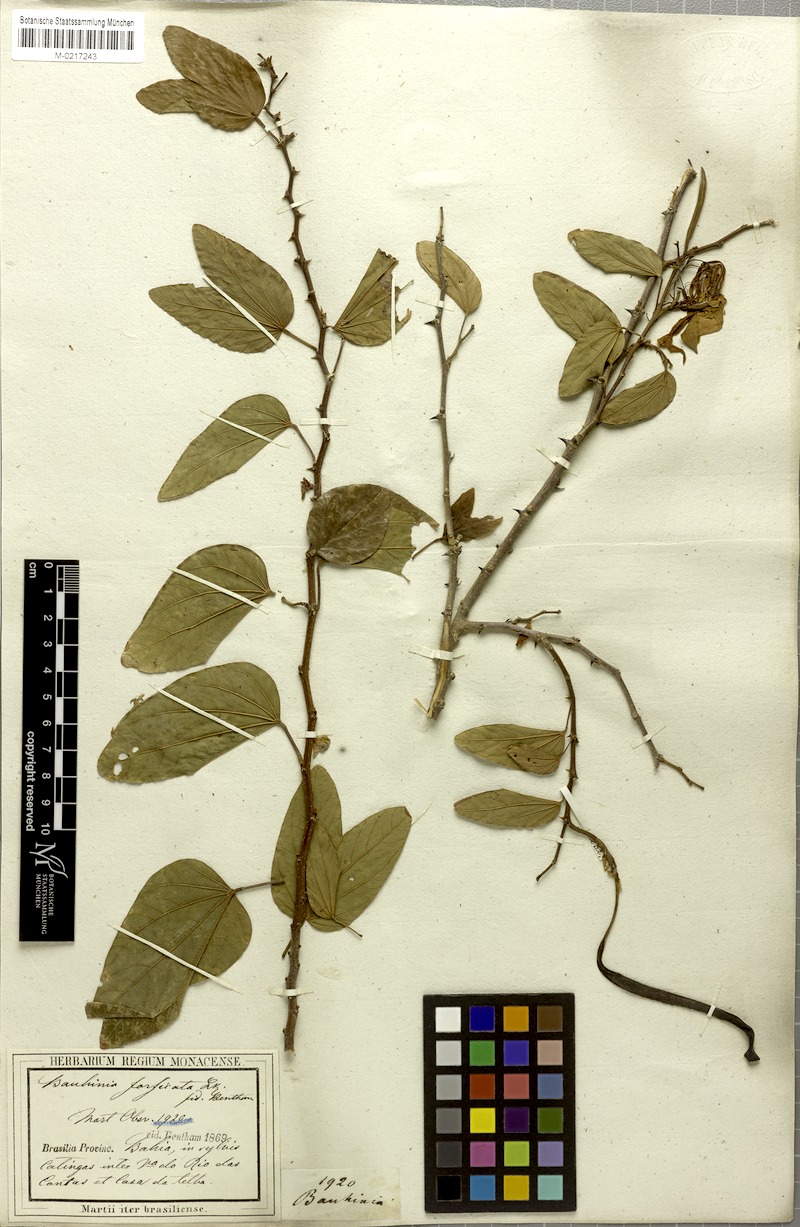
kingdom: Plantae
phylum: Tracheophyta
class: Magnoliopsida
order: Fabales
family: Fabaceae
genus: Bauhinia
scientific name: Bauhinia forficata
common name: Orchid tree
